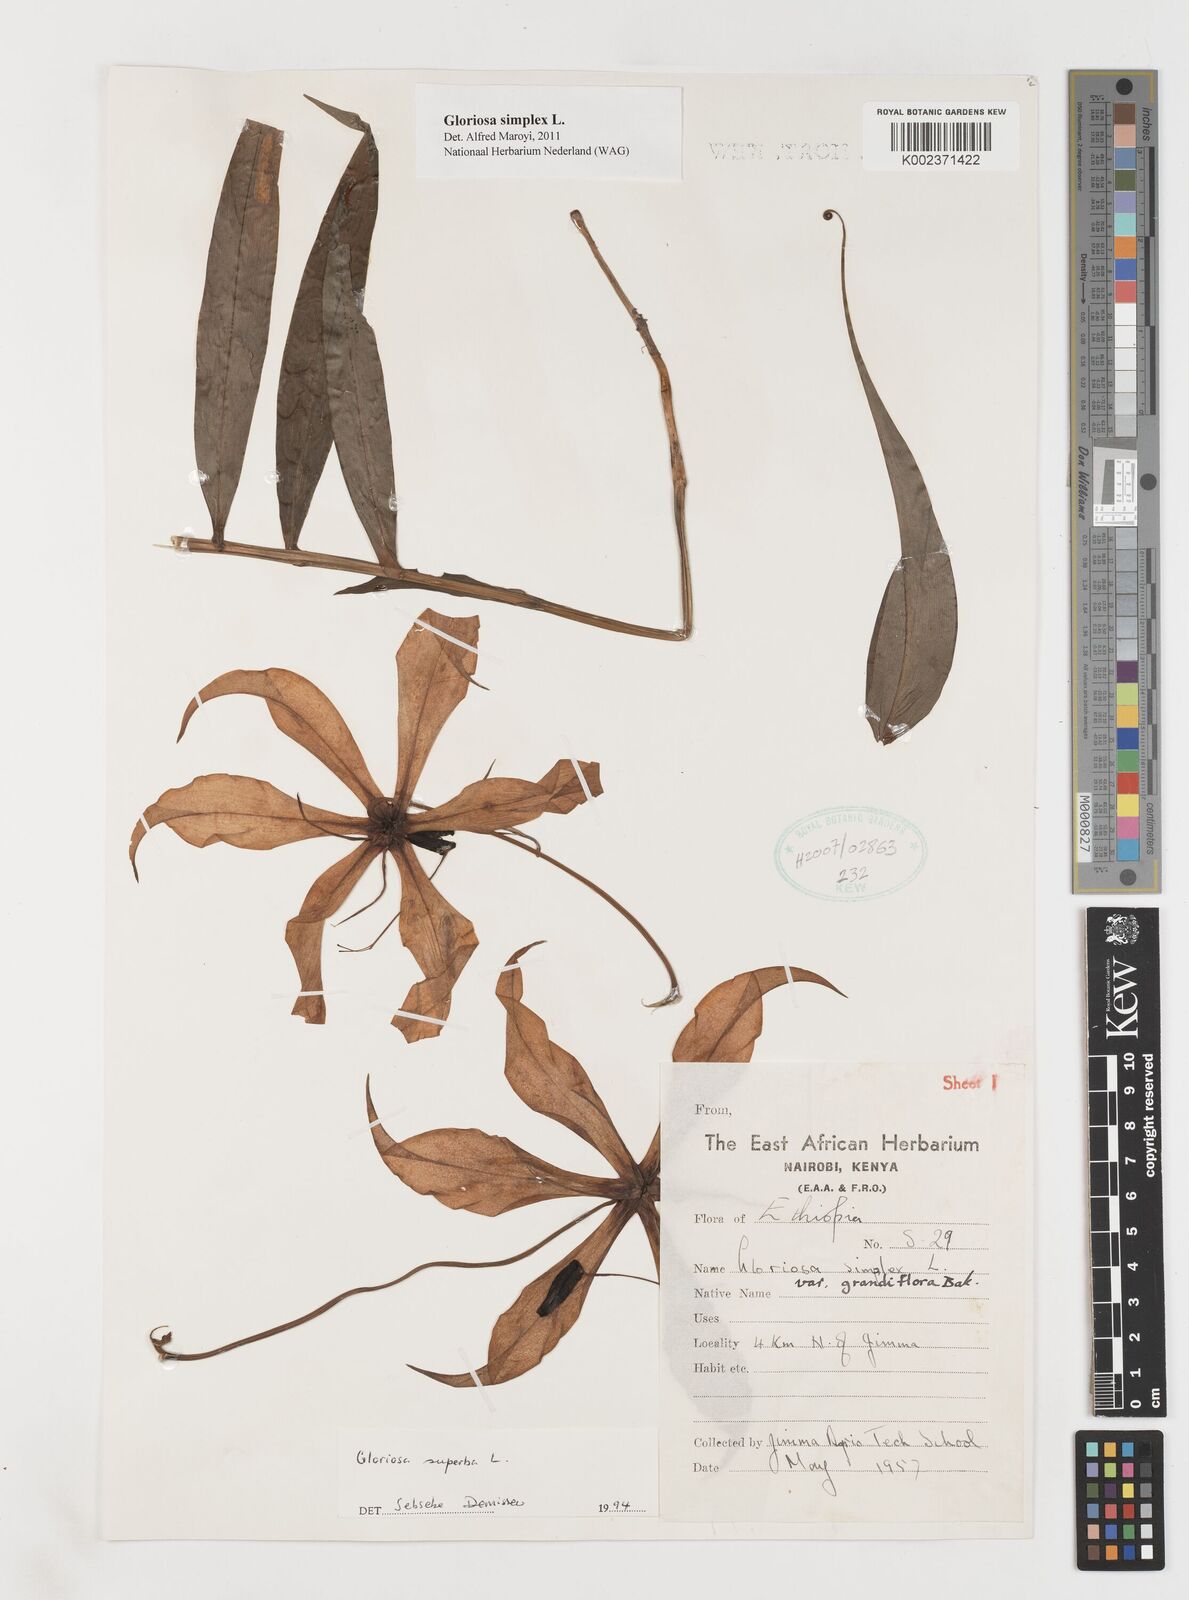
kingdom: Plantae
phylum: Tracheophyta
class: Liliopsida
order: Liliales
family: Colchicaceae
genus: Gloriosa
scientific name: Gloriosa simplex
